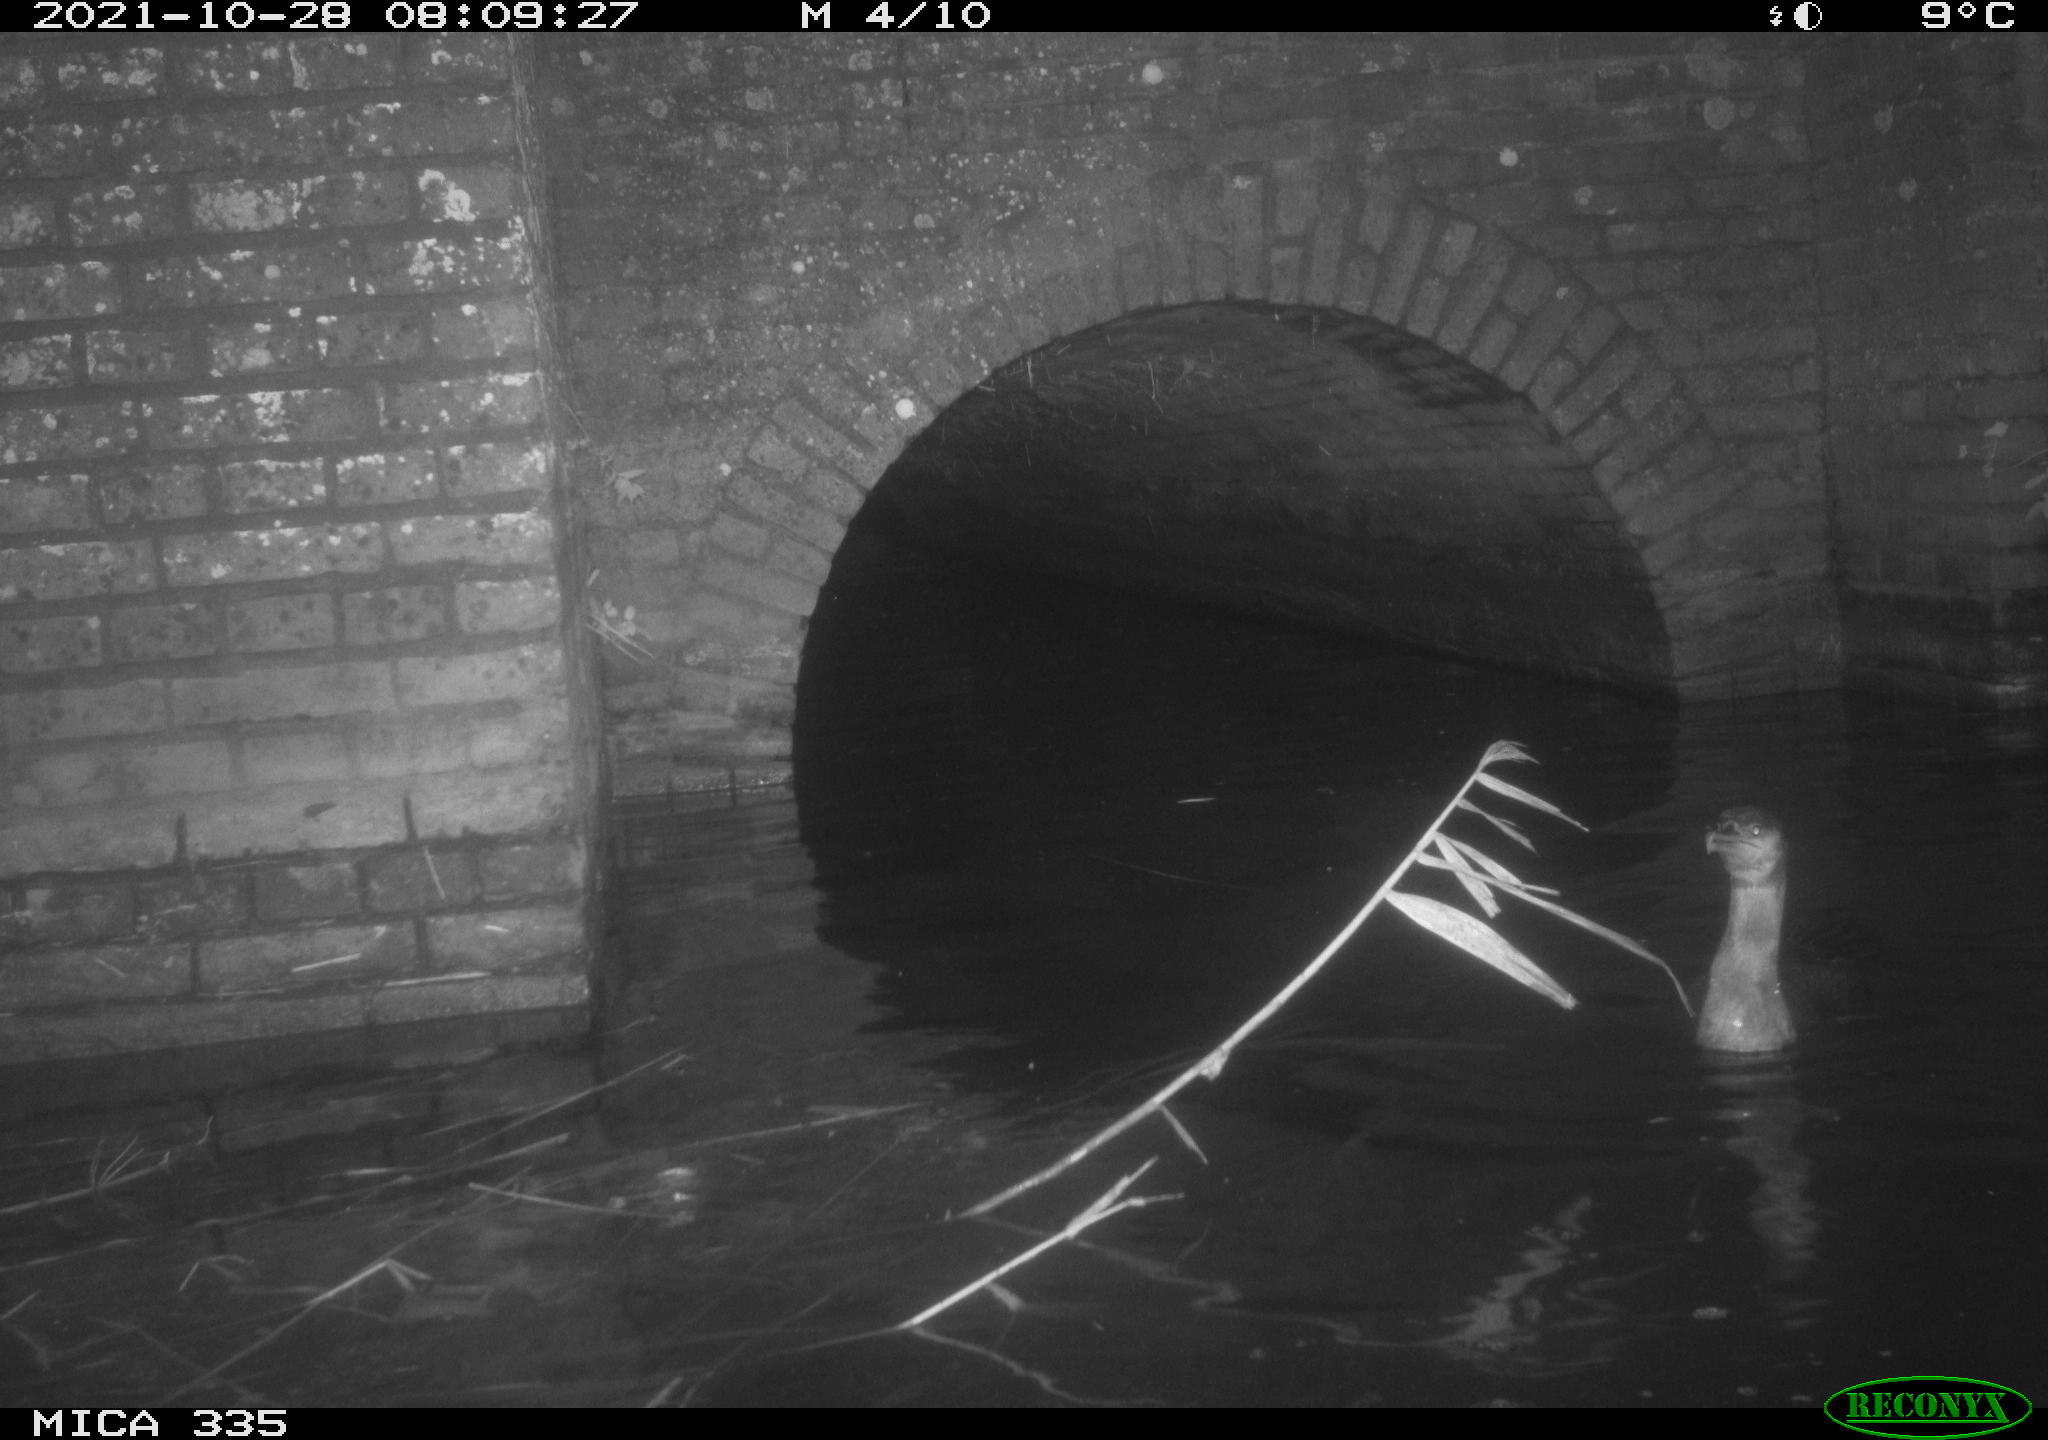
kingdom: Animalia
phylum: Chordata
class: Aves
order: Suliformes
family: Phalacrocoracidae
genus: Phalacrocorax
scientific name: Phalacrocorax carbo
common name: Great cormorant
